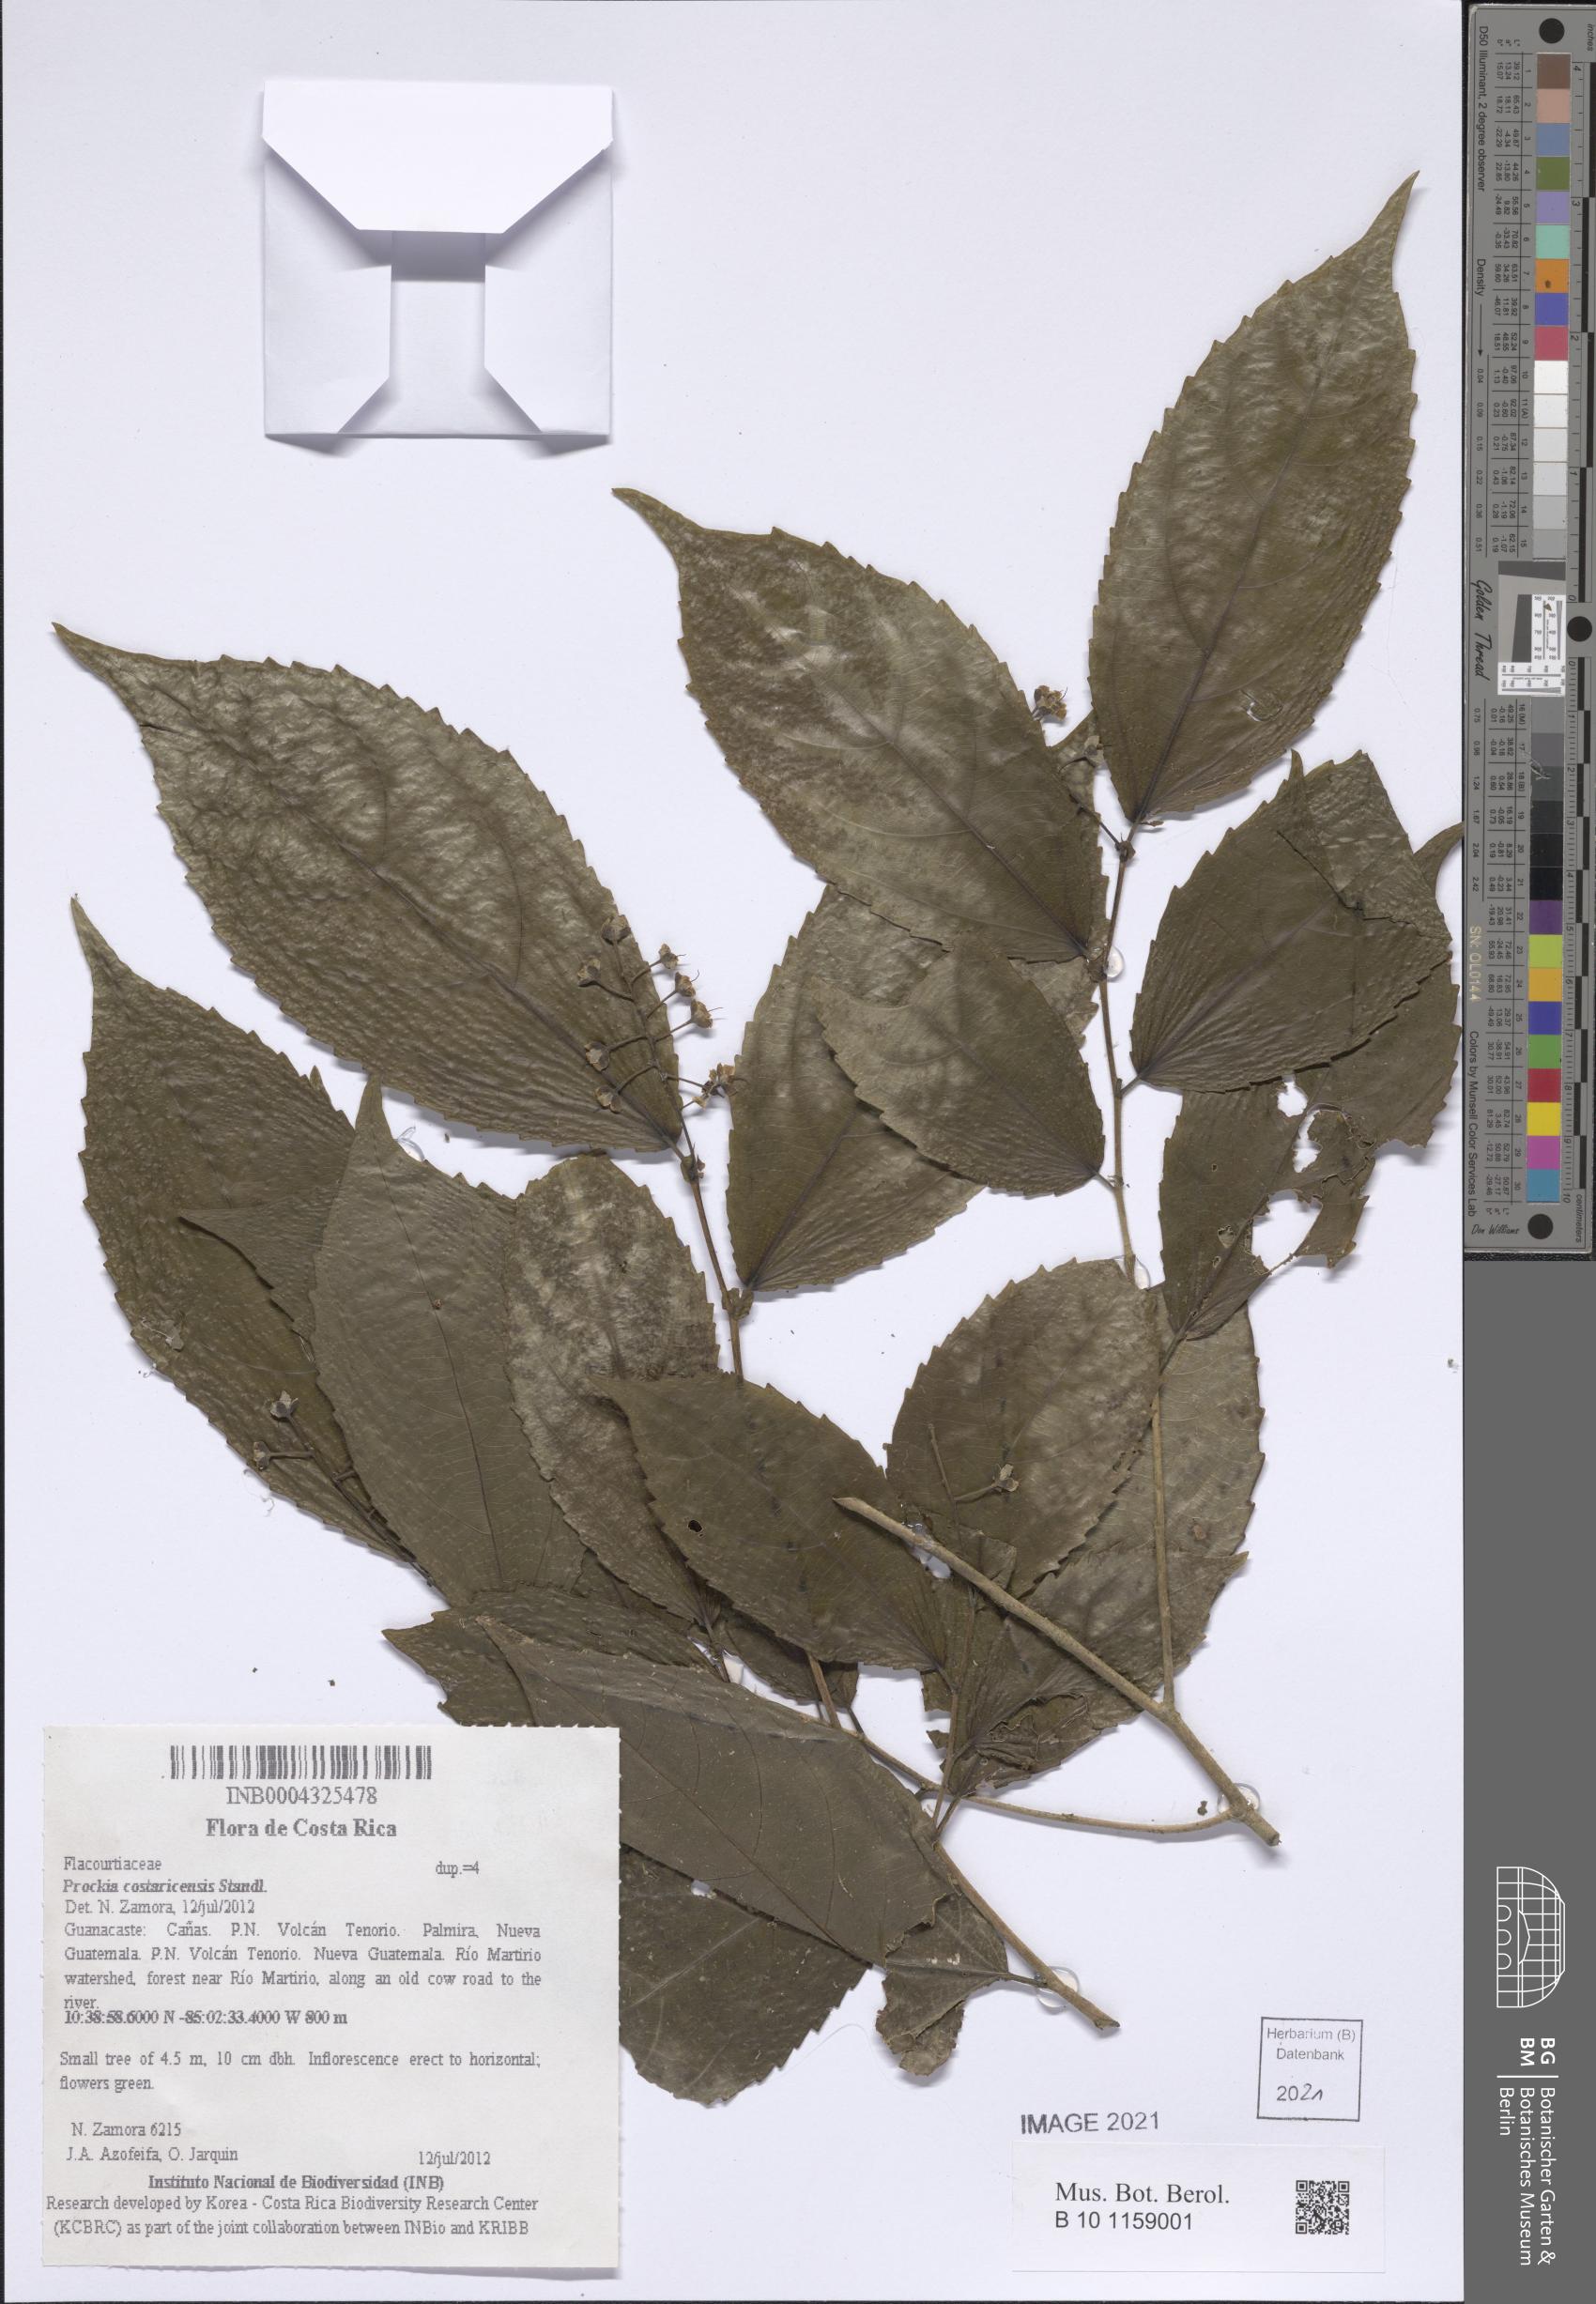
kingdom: Plantae
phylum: Tracheophyta
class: Magnoliopsida
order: Malpighiales
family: Salicaceae
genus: Prockia
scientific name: Prockia costaricensis
